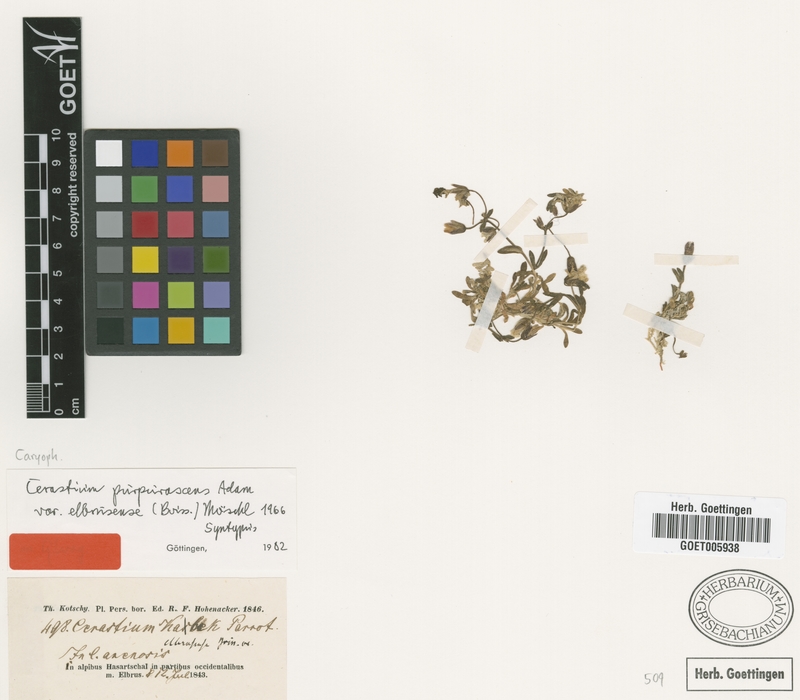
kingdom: Plantae
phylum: Tracheophyta
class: Magnoliopsida
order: Caryophyllales
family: Caryophyllaceae
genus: Cerastium
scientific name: Cerastium elbrusense
